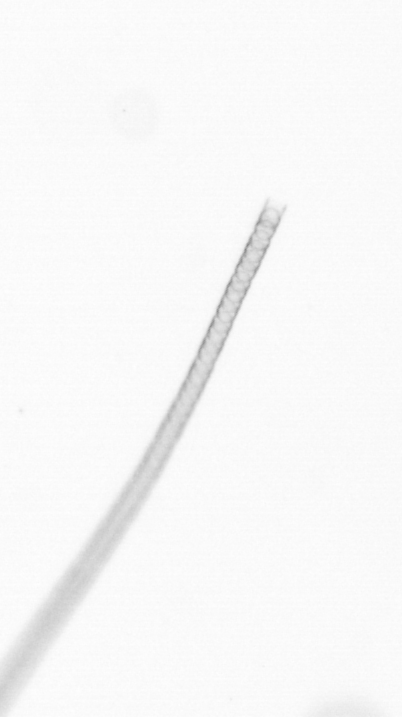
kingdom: Chromista
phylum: Ochrophyta
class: Bacillariophyceae
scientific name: Bacillariophyceae
